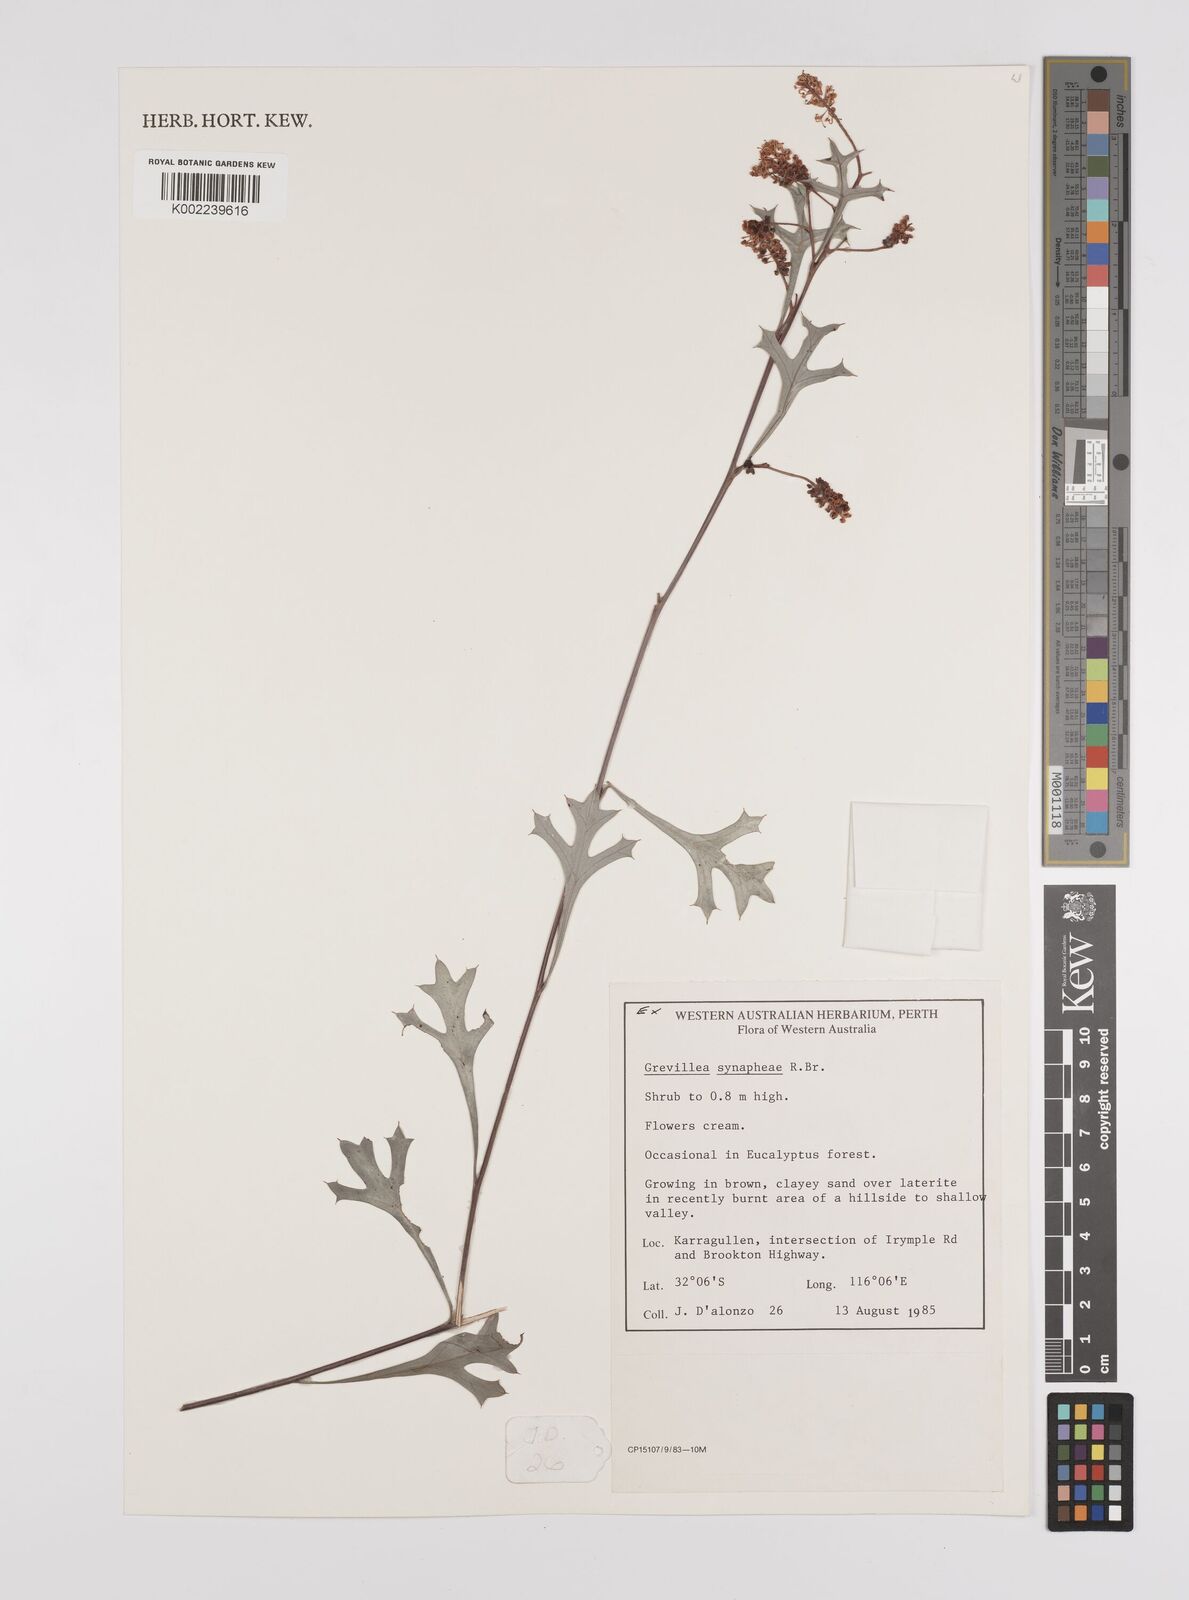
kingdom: Plantae
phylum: Tracheophyta
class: Magnoliopsida
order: Proteales
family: Proteaceae
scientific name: Proteaceae
